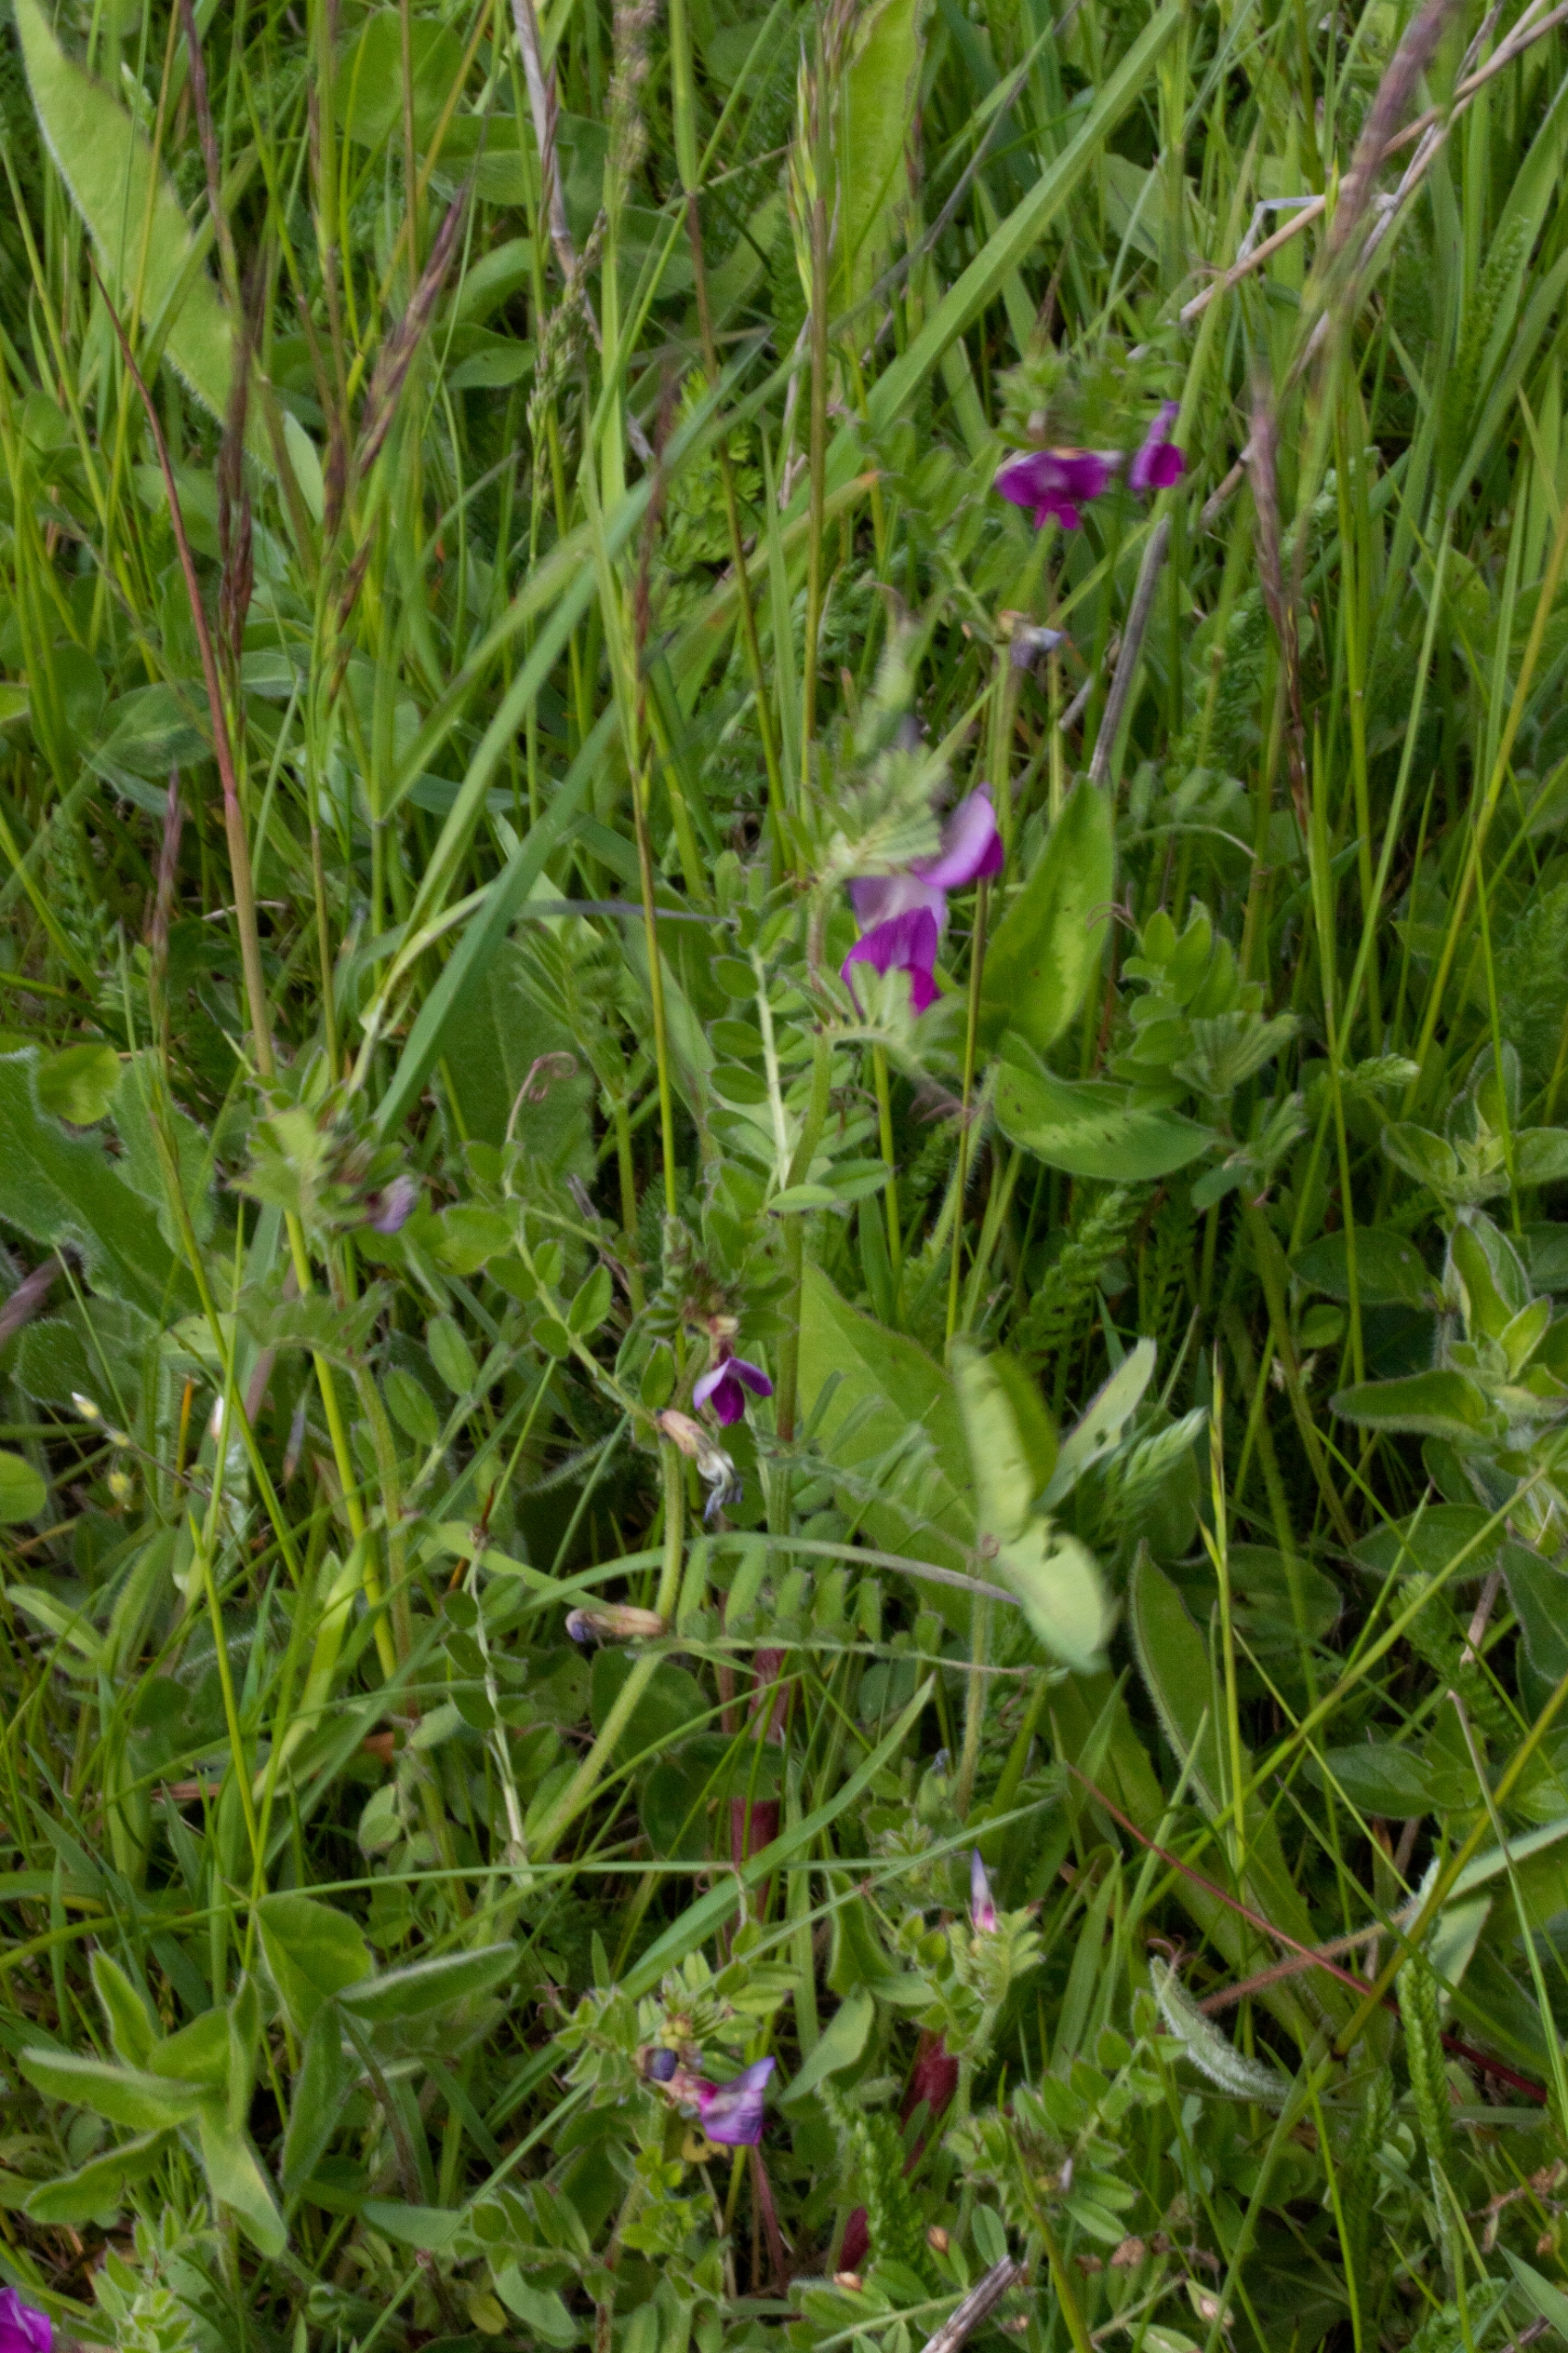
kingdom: Plantae
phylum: Tracheophyta
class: Magnoliopsida
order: Fabales
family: Fabaceae
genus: Vicia
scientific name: Vicia sativa
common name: Smalbladet vikke
